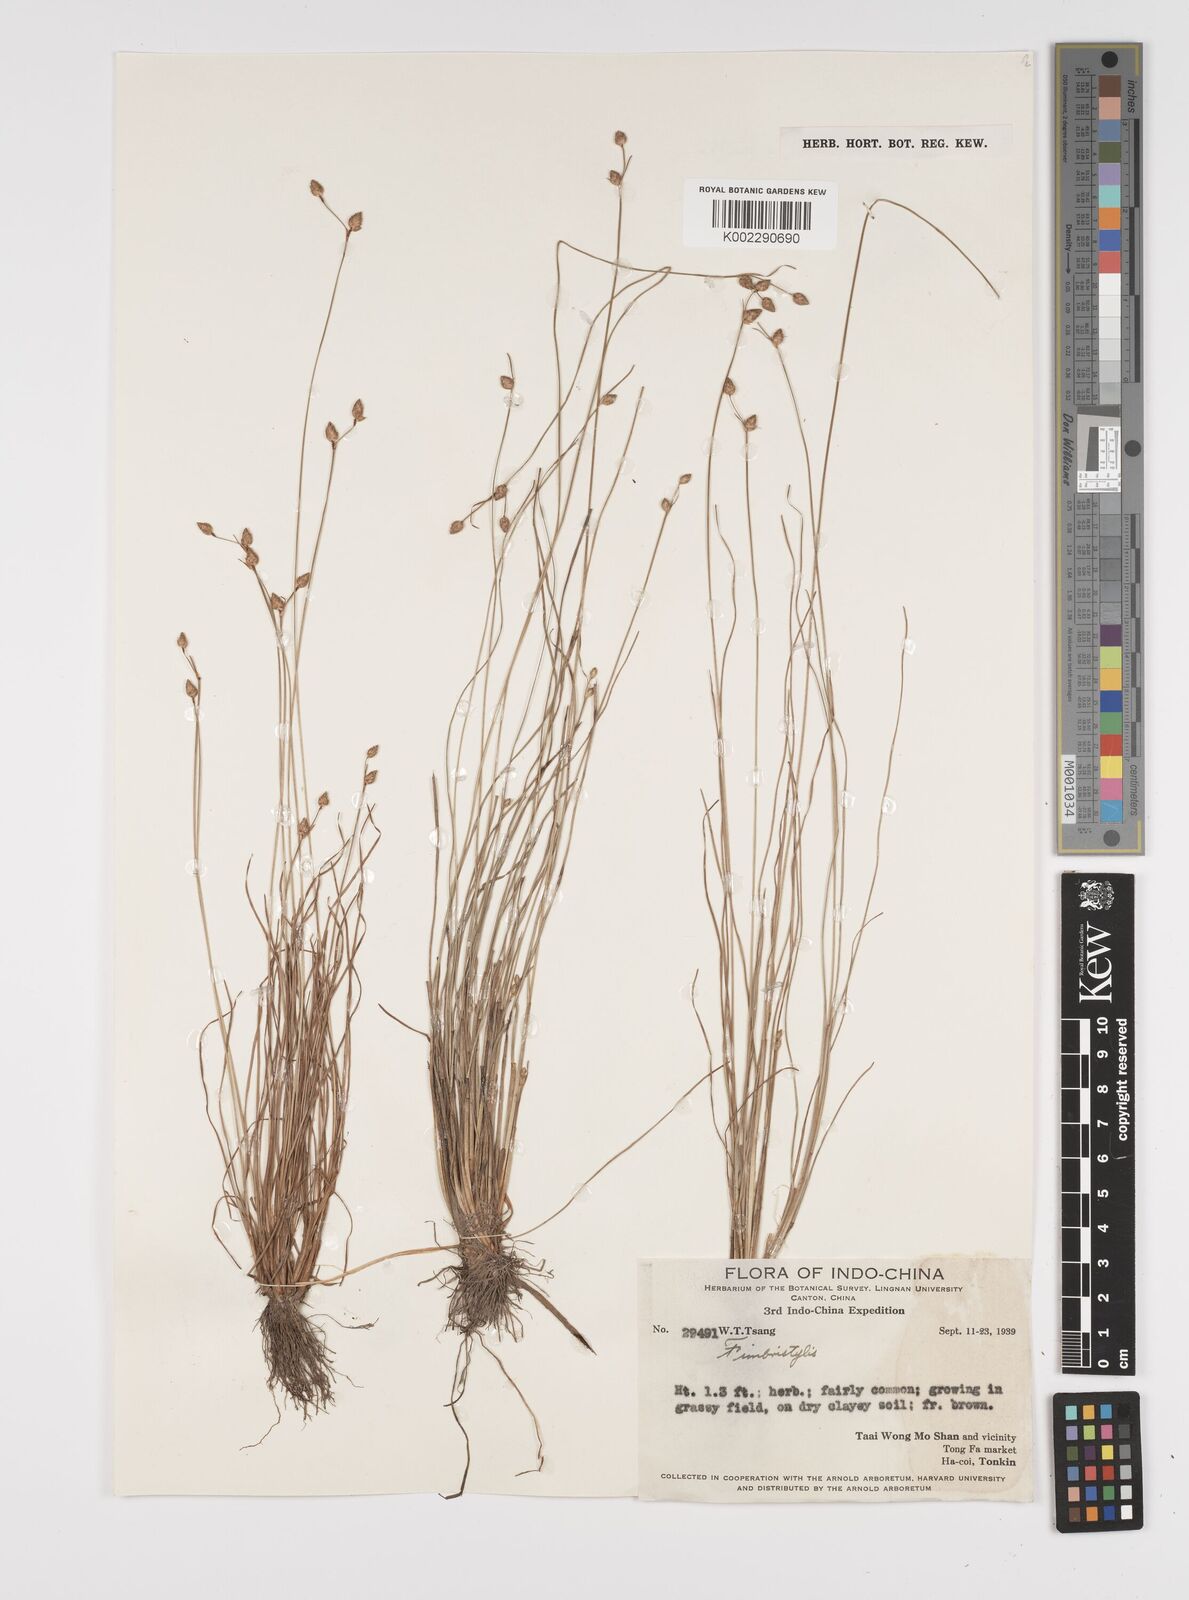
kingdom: Plantae
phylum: Tracheophyta
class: Liliopsida
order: Poales
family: Cyperaceae
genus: Fimbristylis
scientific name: Fimbristylis
